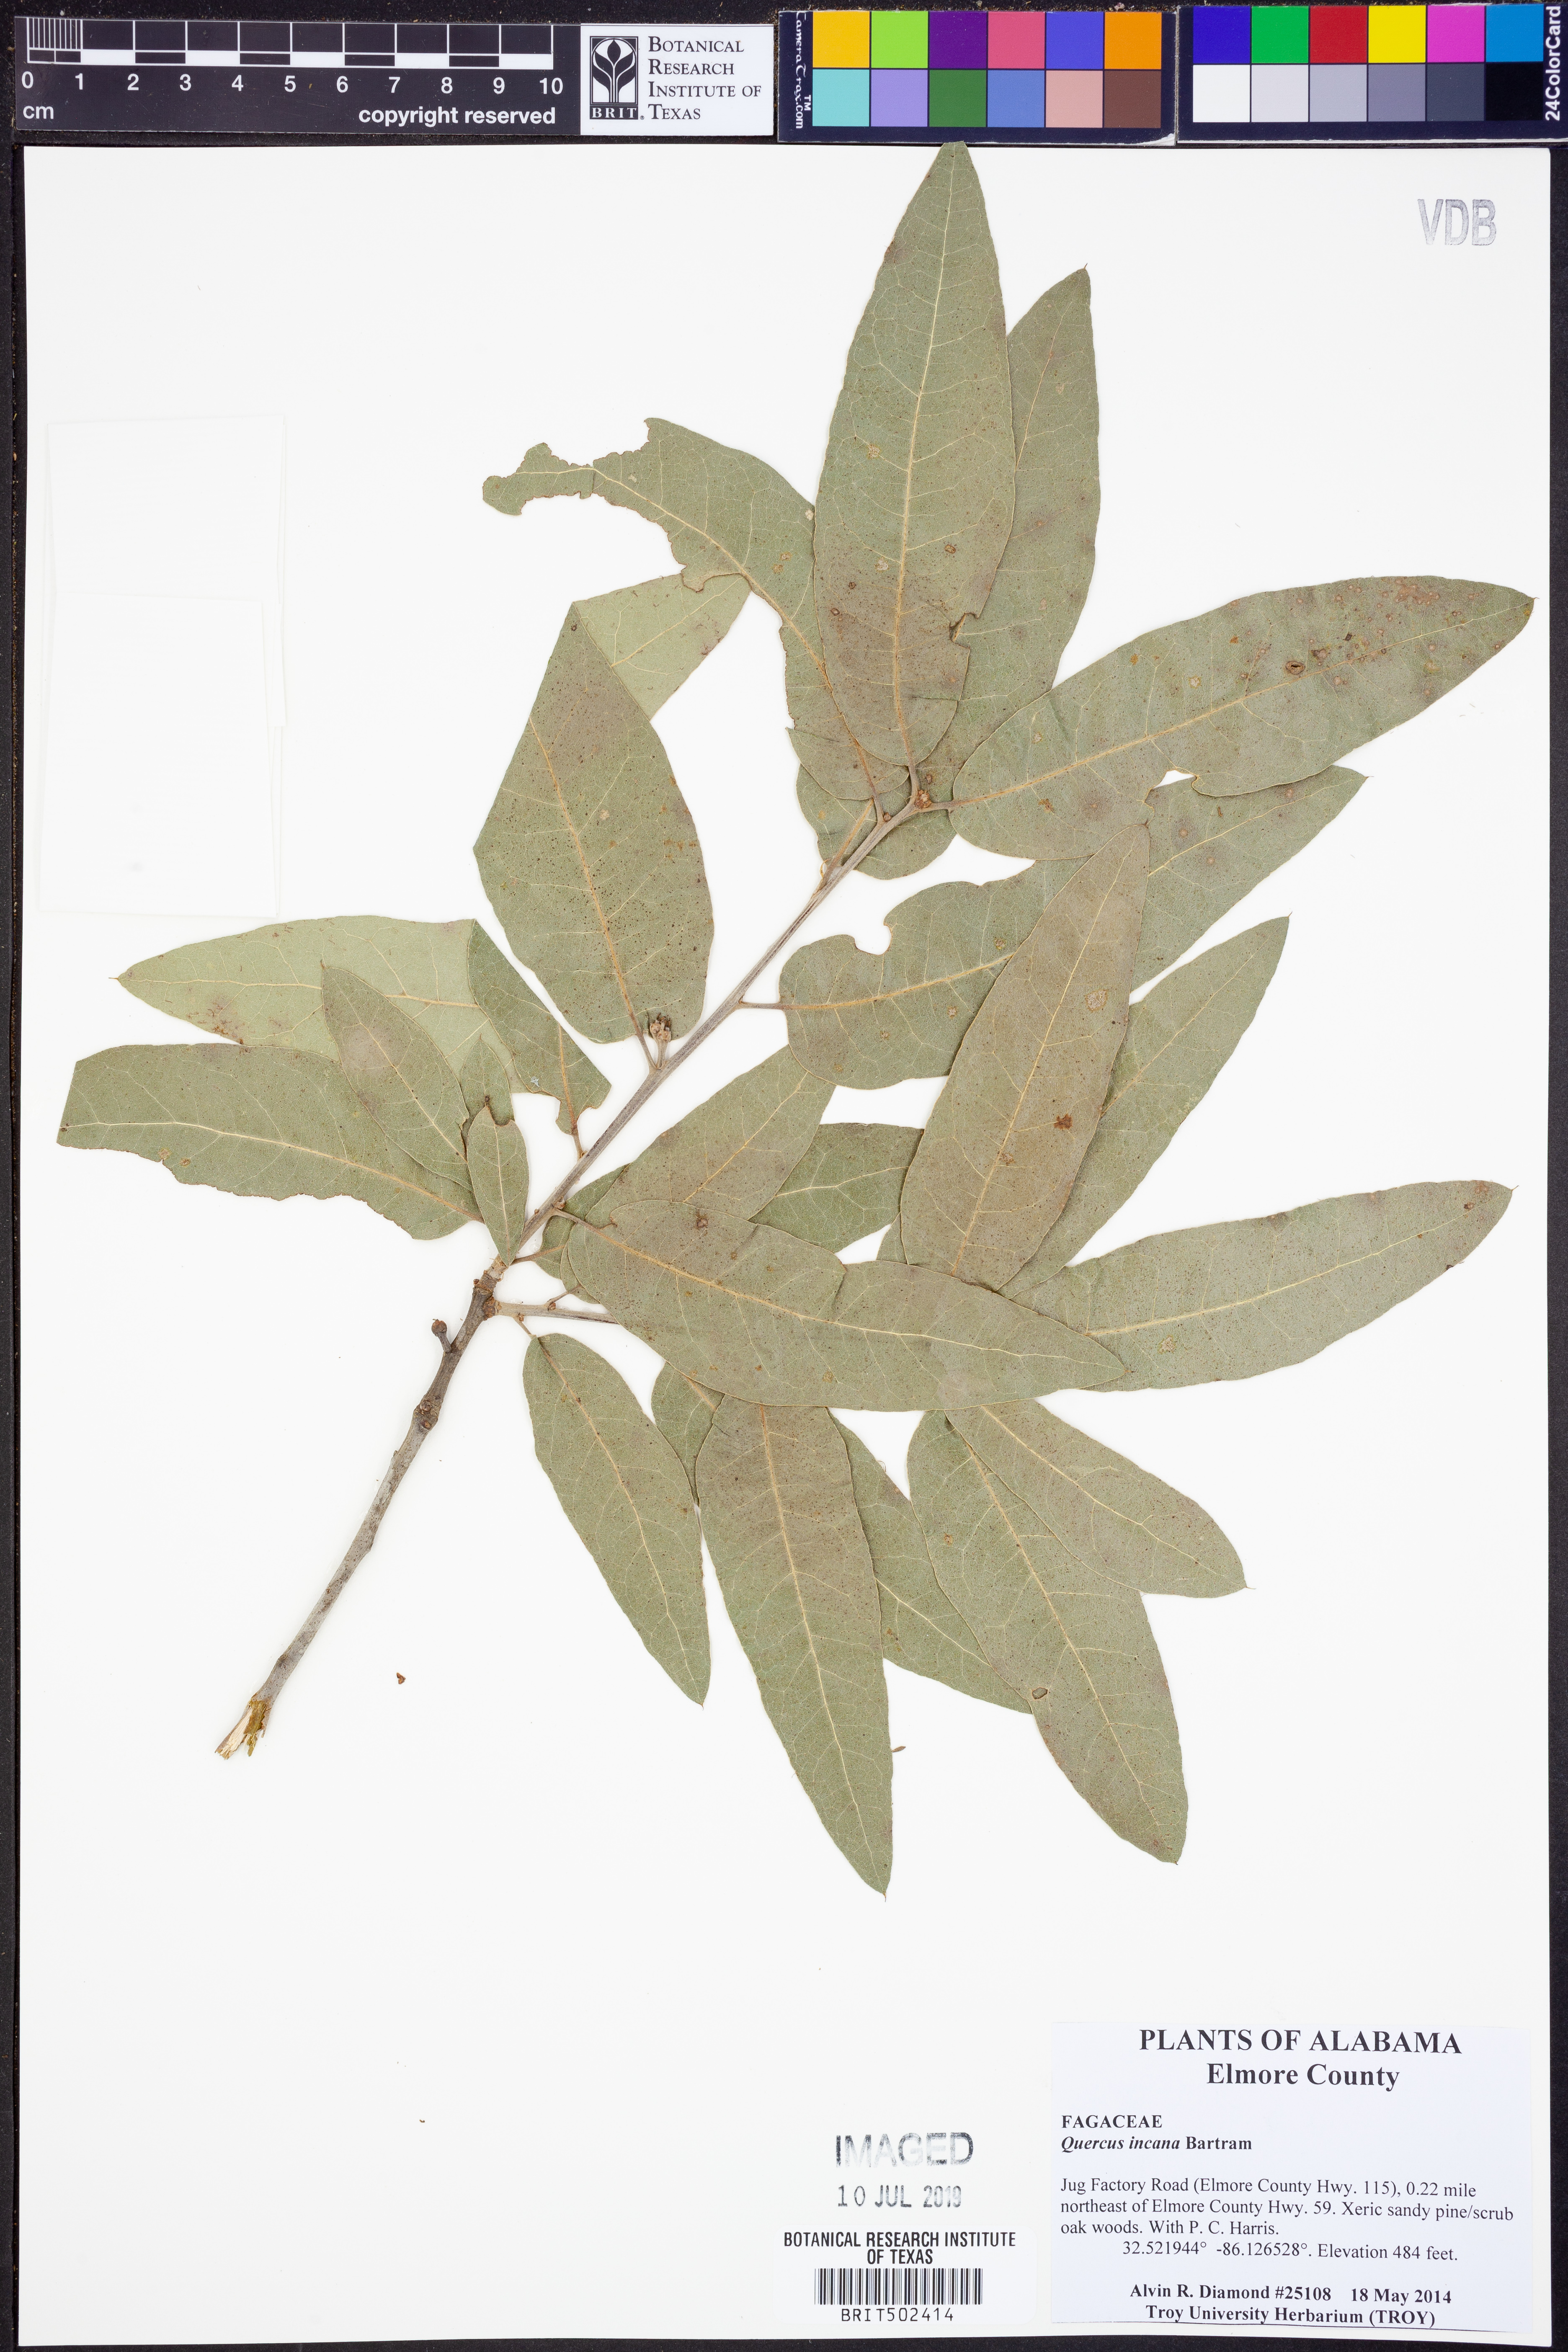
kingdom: Plantae
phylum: Tracheophyta
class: Magnoliopsida
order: Fagales
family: Fagaceae
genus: Quercus
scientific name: Quercus incana
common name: Bluejack oak
